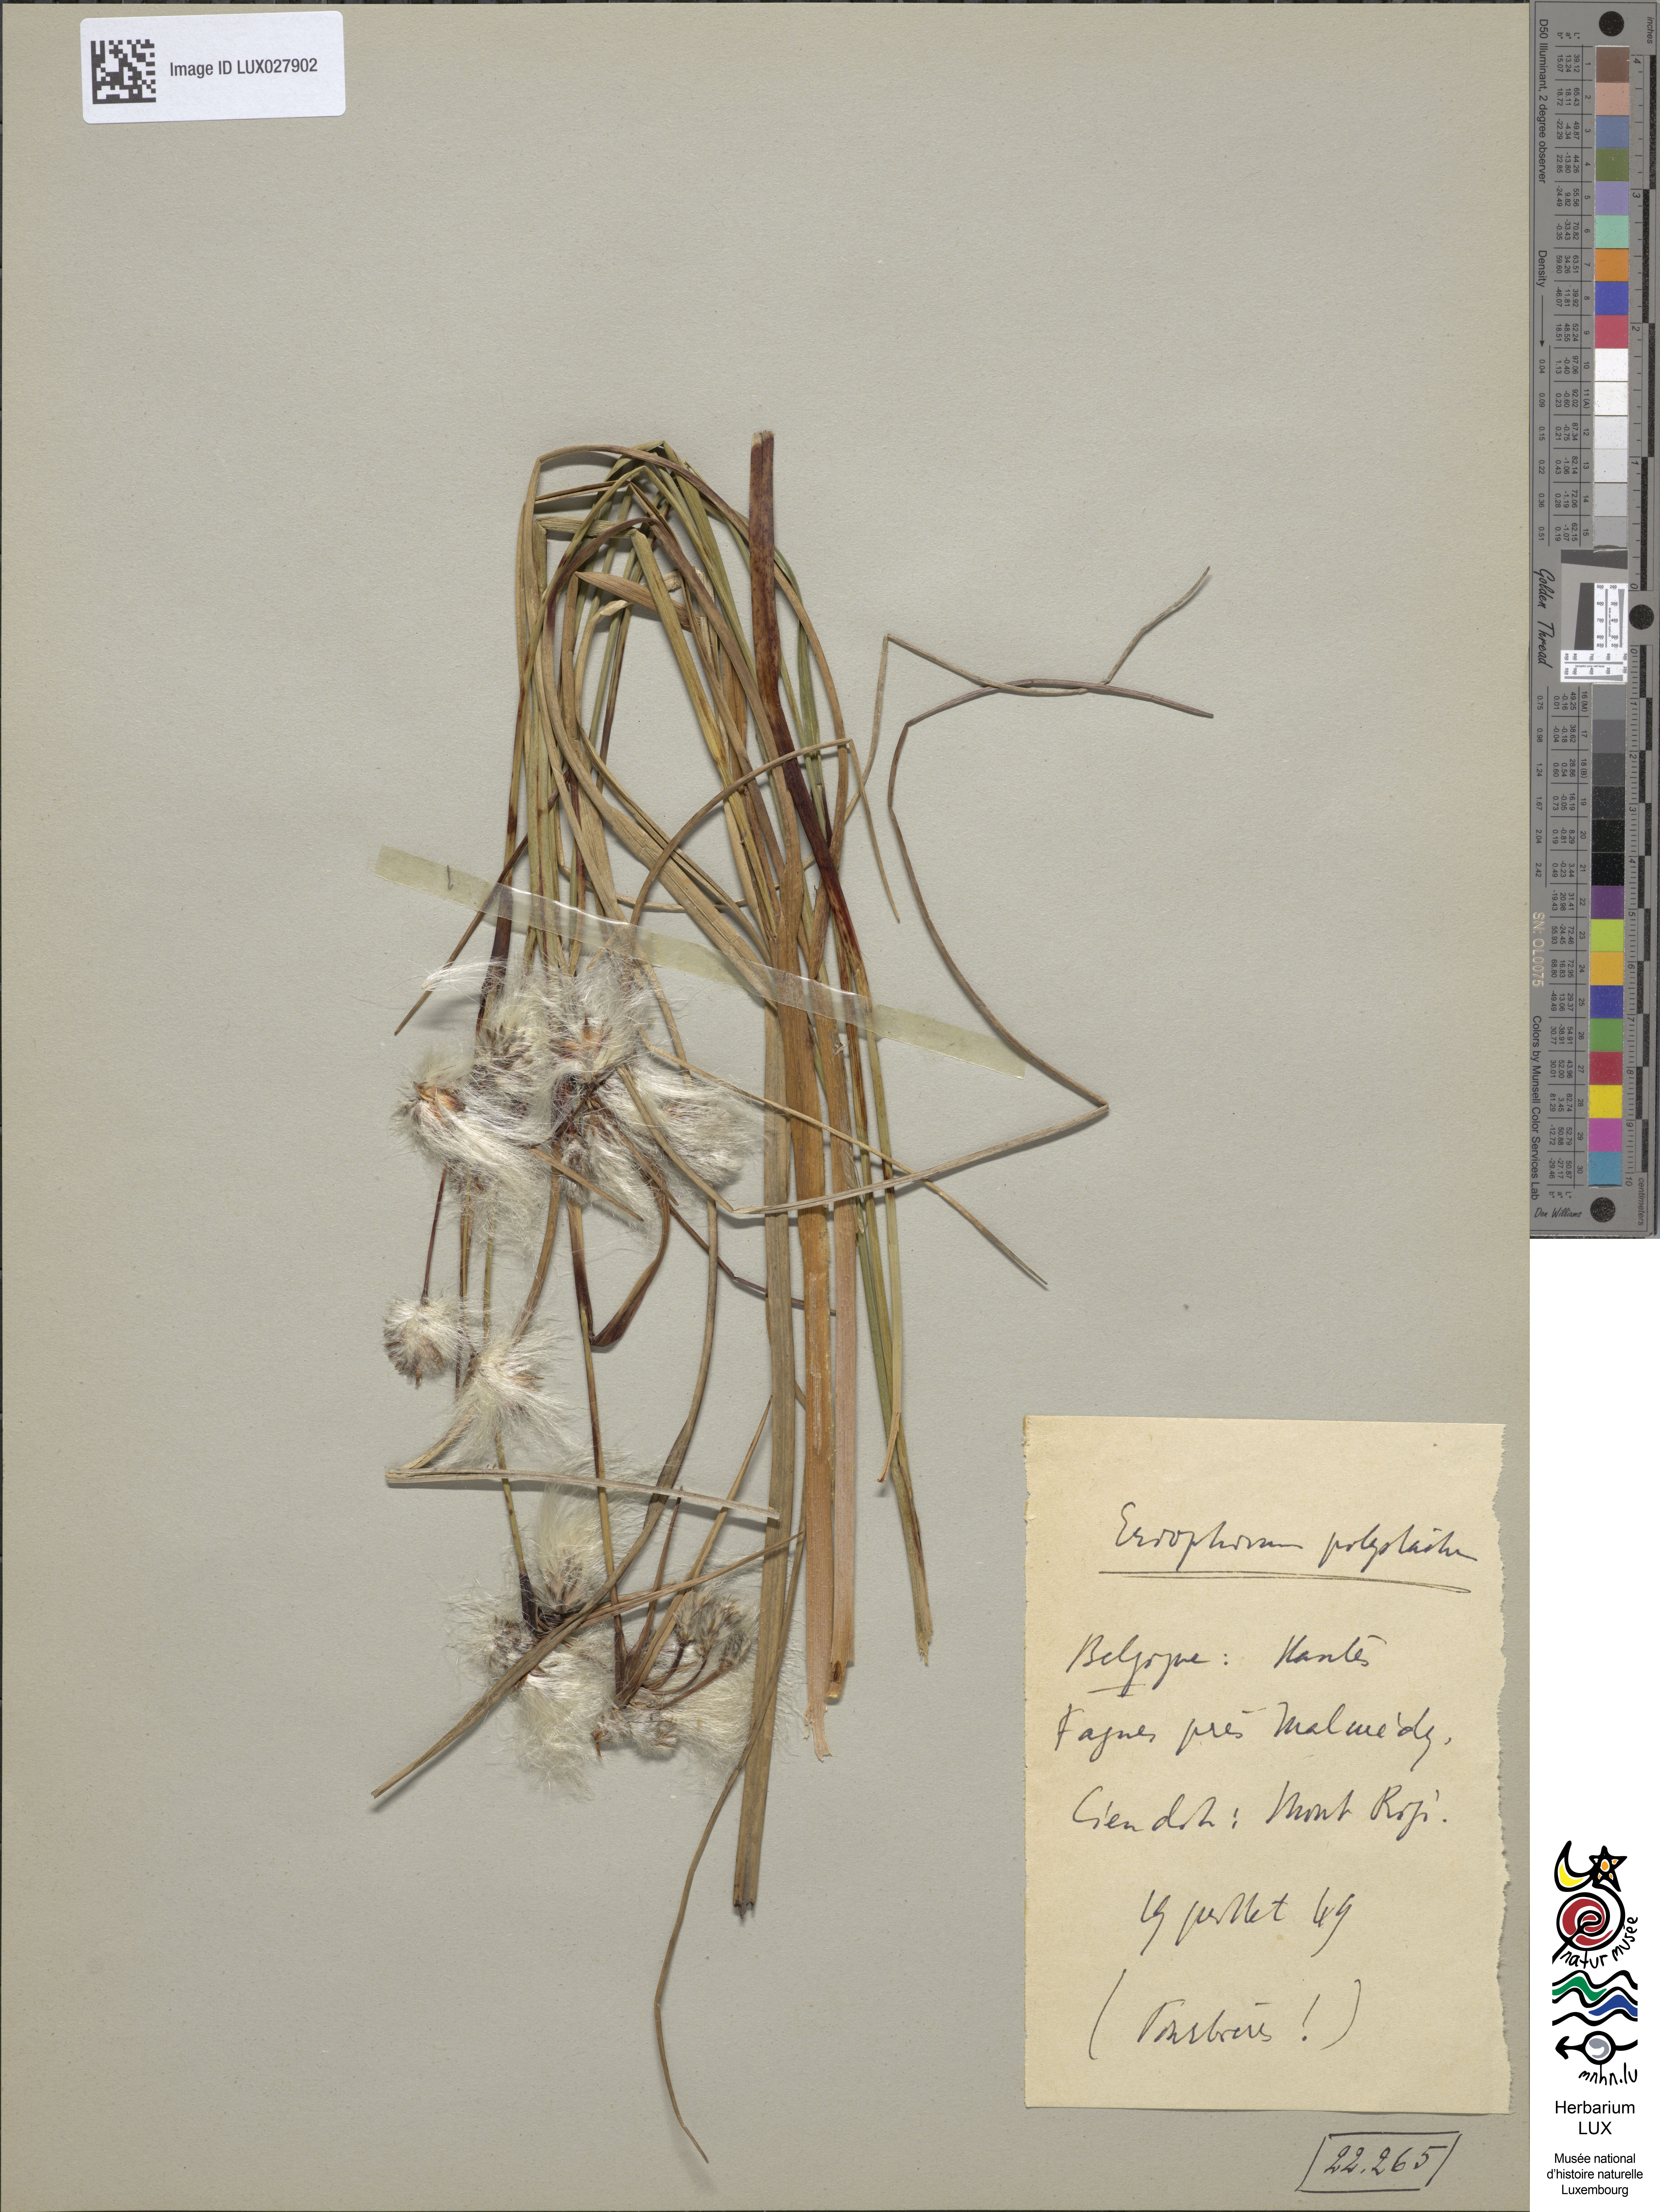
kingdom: Plantae
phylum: Tracheophyta
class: Liliopsida
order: Poales
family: Cyperaceae
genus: Eriophorum
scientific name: Eriophorum angustifolium
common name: Common cottongrass
